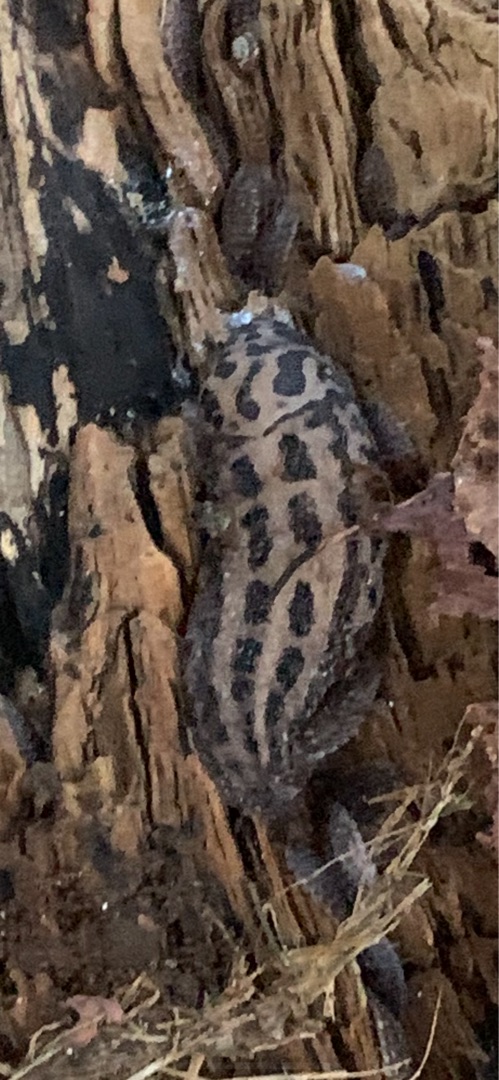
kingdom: Animalia
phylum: Mollusca
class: Gastropoda
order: Stylommatophora
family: Limacidae
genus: Limax
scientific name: Limax maximus
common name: Pantersnegl
